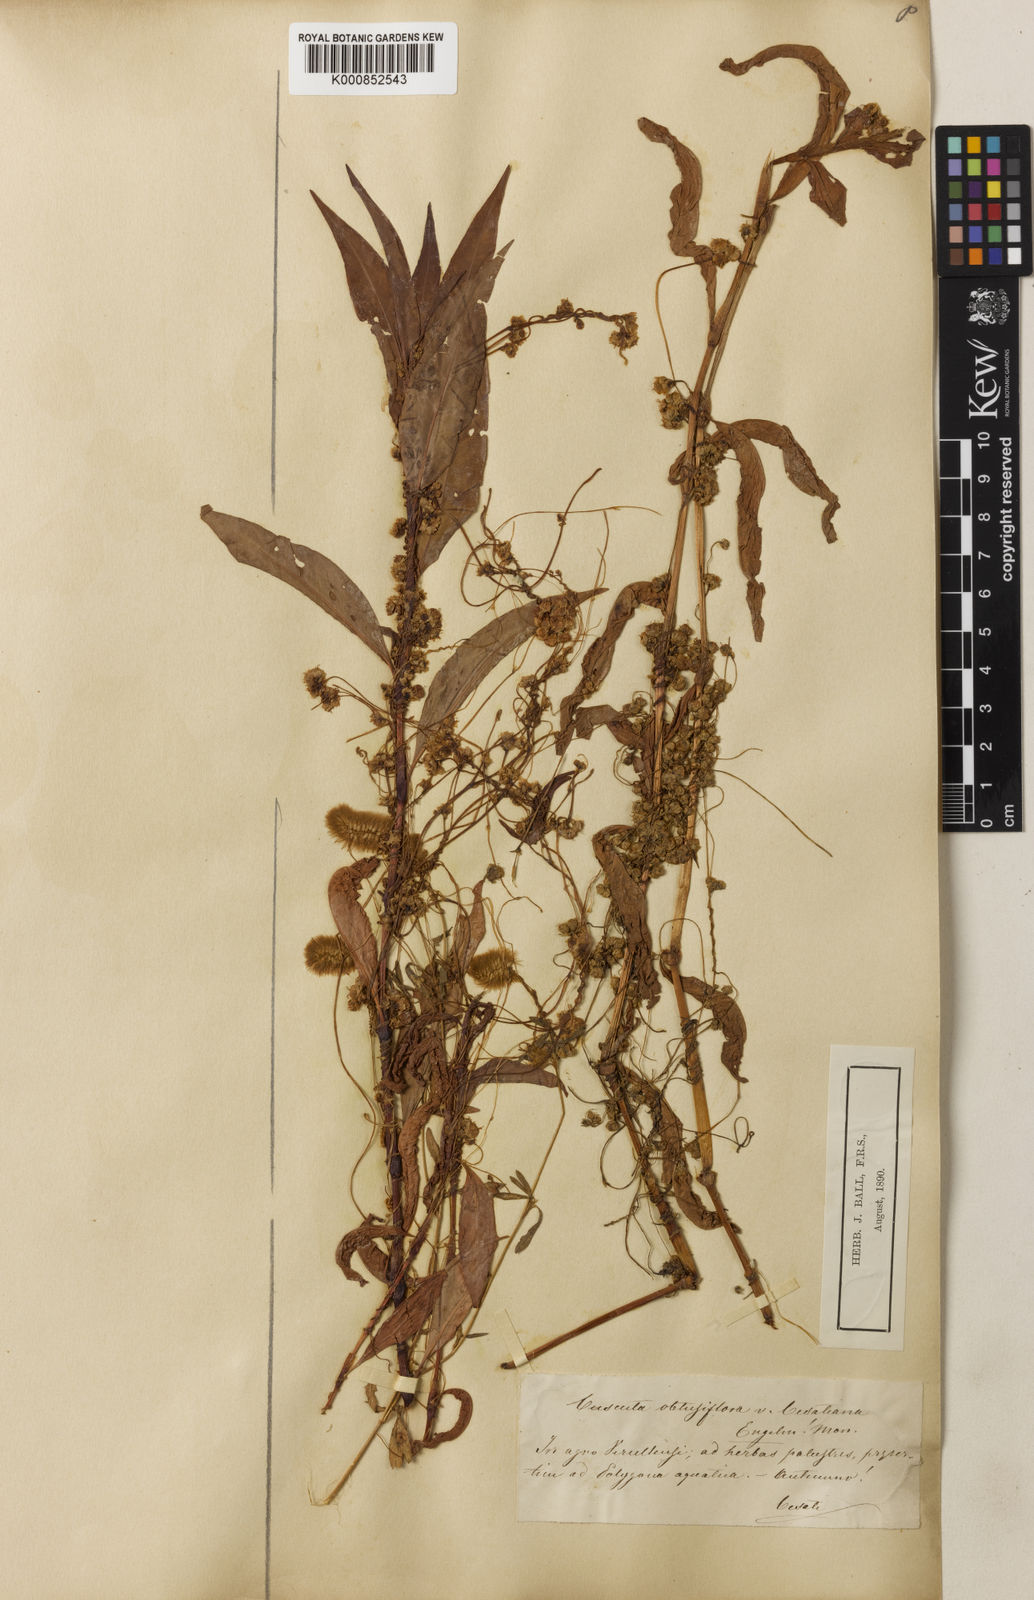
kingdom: Plantae
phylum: Tracheophyta
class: Magnoliopsida
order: Solanales
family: Convolvulaceae
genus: Cuscuta
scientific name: Cuscuta polygonorum
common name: Polygonum dodder
